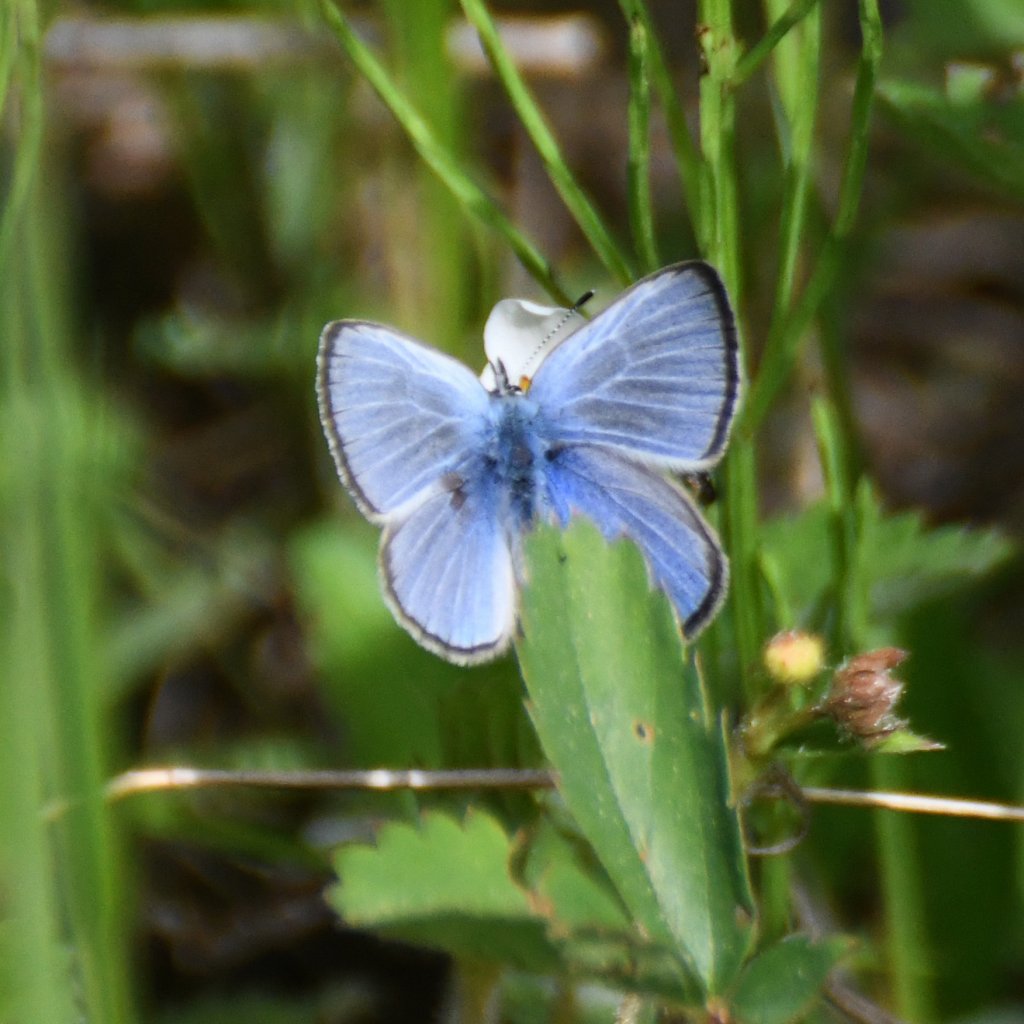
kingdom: Animalia
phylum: Arthropoda
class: Insecta
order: Lepidoptera
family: Lycaenidae
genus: Glaucopsyche
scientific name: Glaucopsyche lygdamus
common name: Silvery Blue
